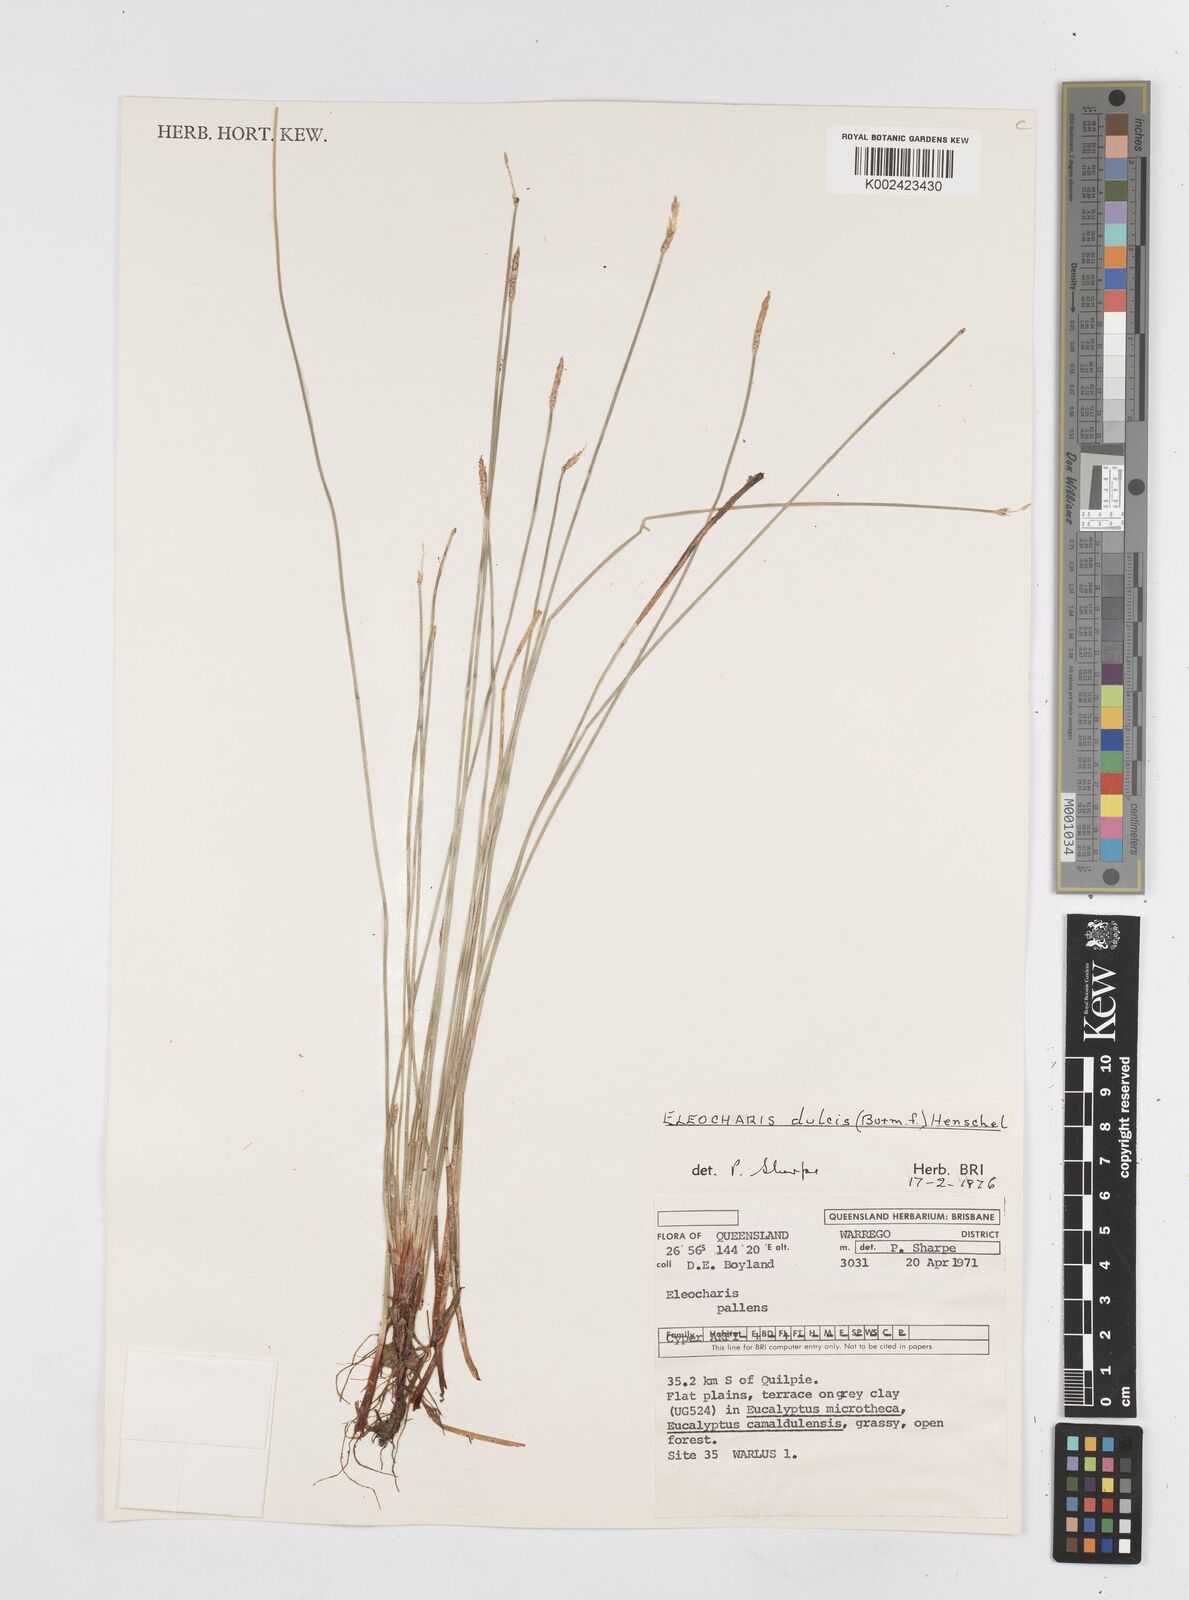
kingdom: Plantae
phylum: Tracheophyta
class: Liliopsida
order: Poales
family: Cyperaceae
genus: Eleocharis
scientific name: Eleocharis acuta
